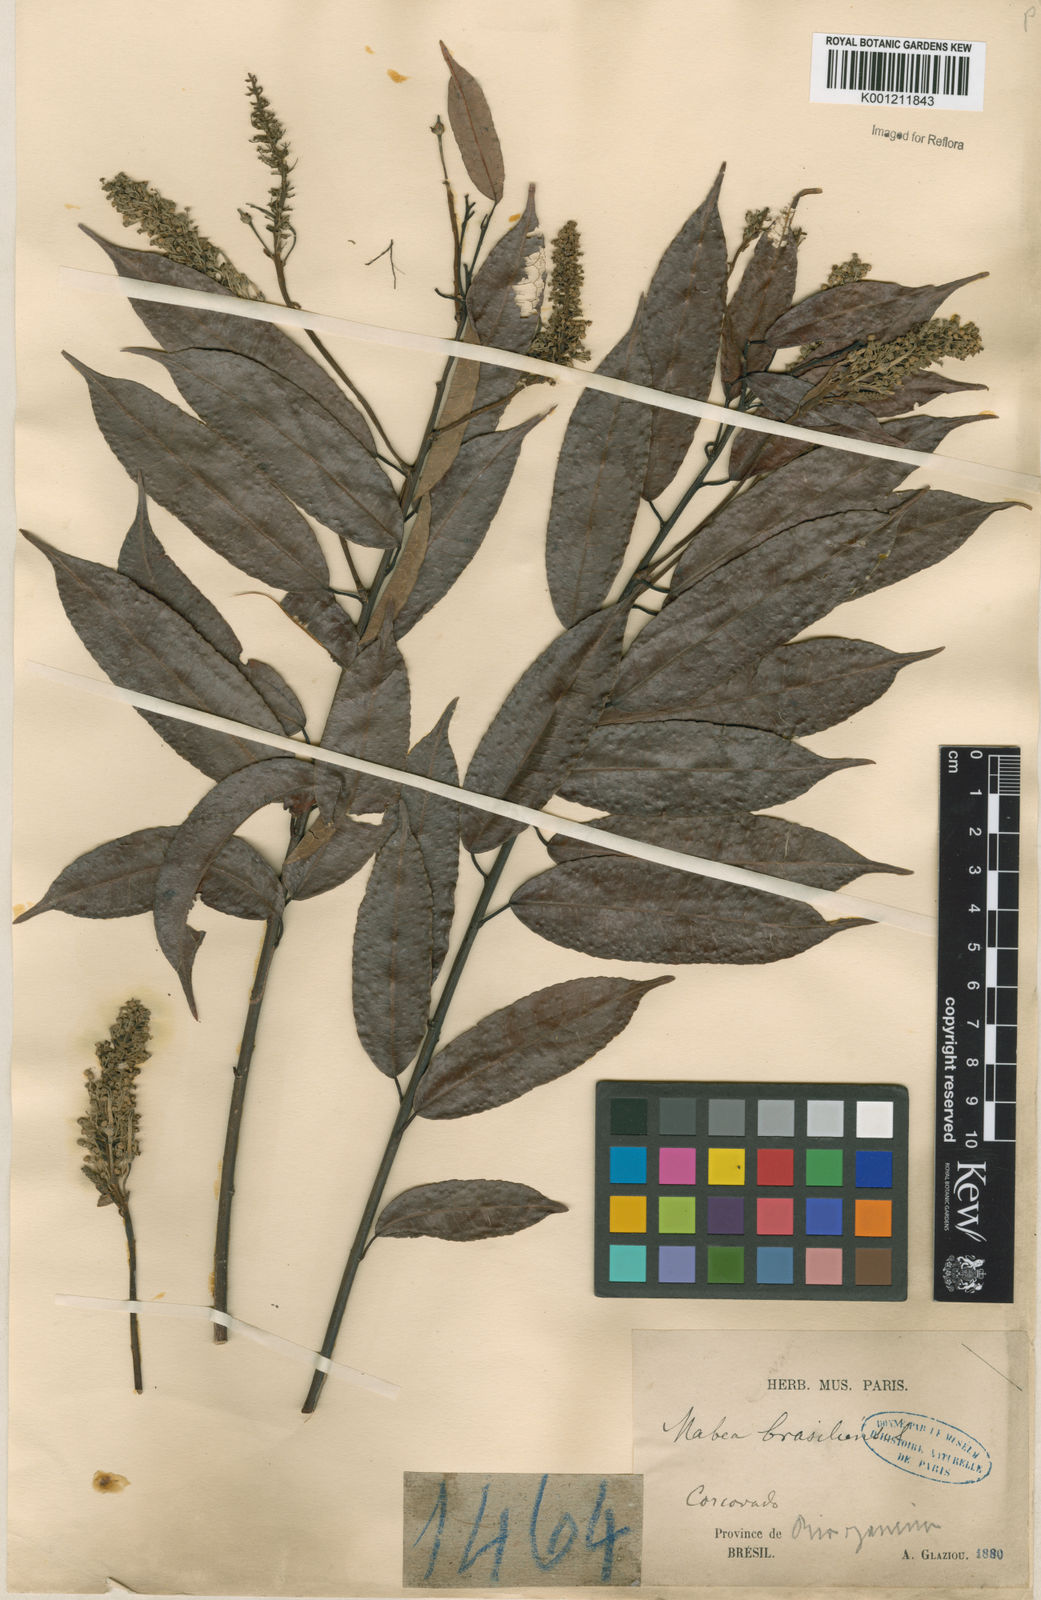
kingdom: Plantae
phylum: Tracheophyta
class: Magnoliopsida
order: Malpighiales
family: Euphorbiaceae
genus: Mabea
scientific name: Mabea
